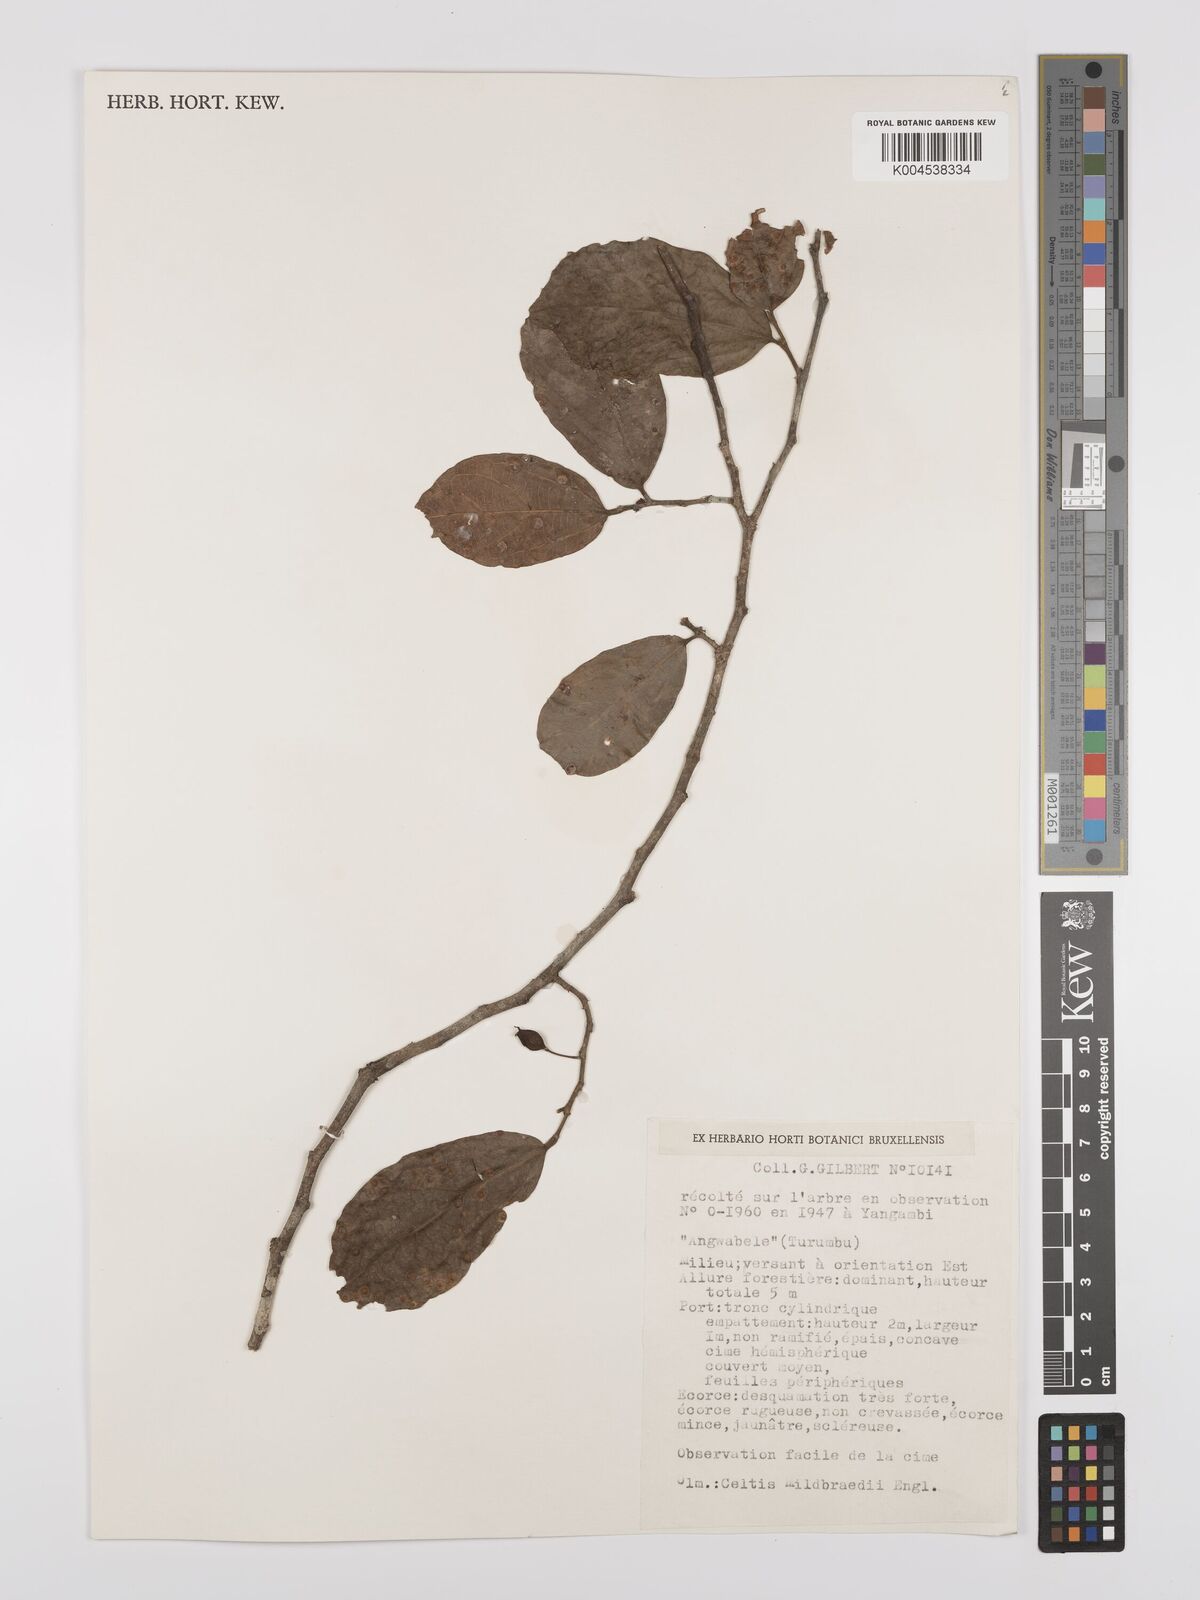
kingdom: Plantae
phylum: Tracheophyta
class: Magnoliopsida
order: Rosales
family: Cannabaceae
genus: Celtis
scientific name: Celtis mildbraedii
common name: Red-fruited stinkwood
